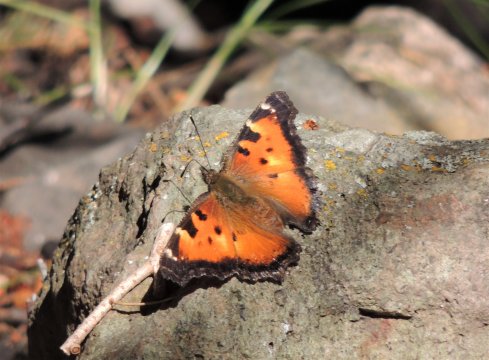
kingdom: Animalia
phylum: Arthropoda
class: Insecta
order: Lepidoptera
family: Nymphalidae
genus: Nymphalis
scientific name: Nymphalis californica
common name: California Tortoiseshell
